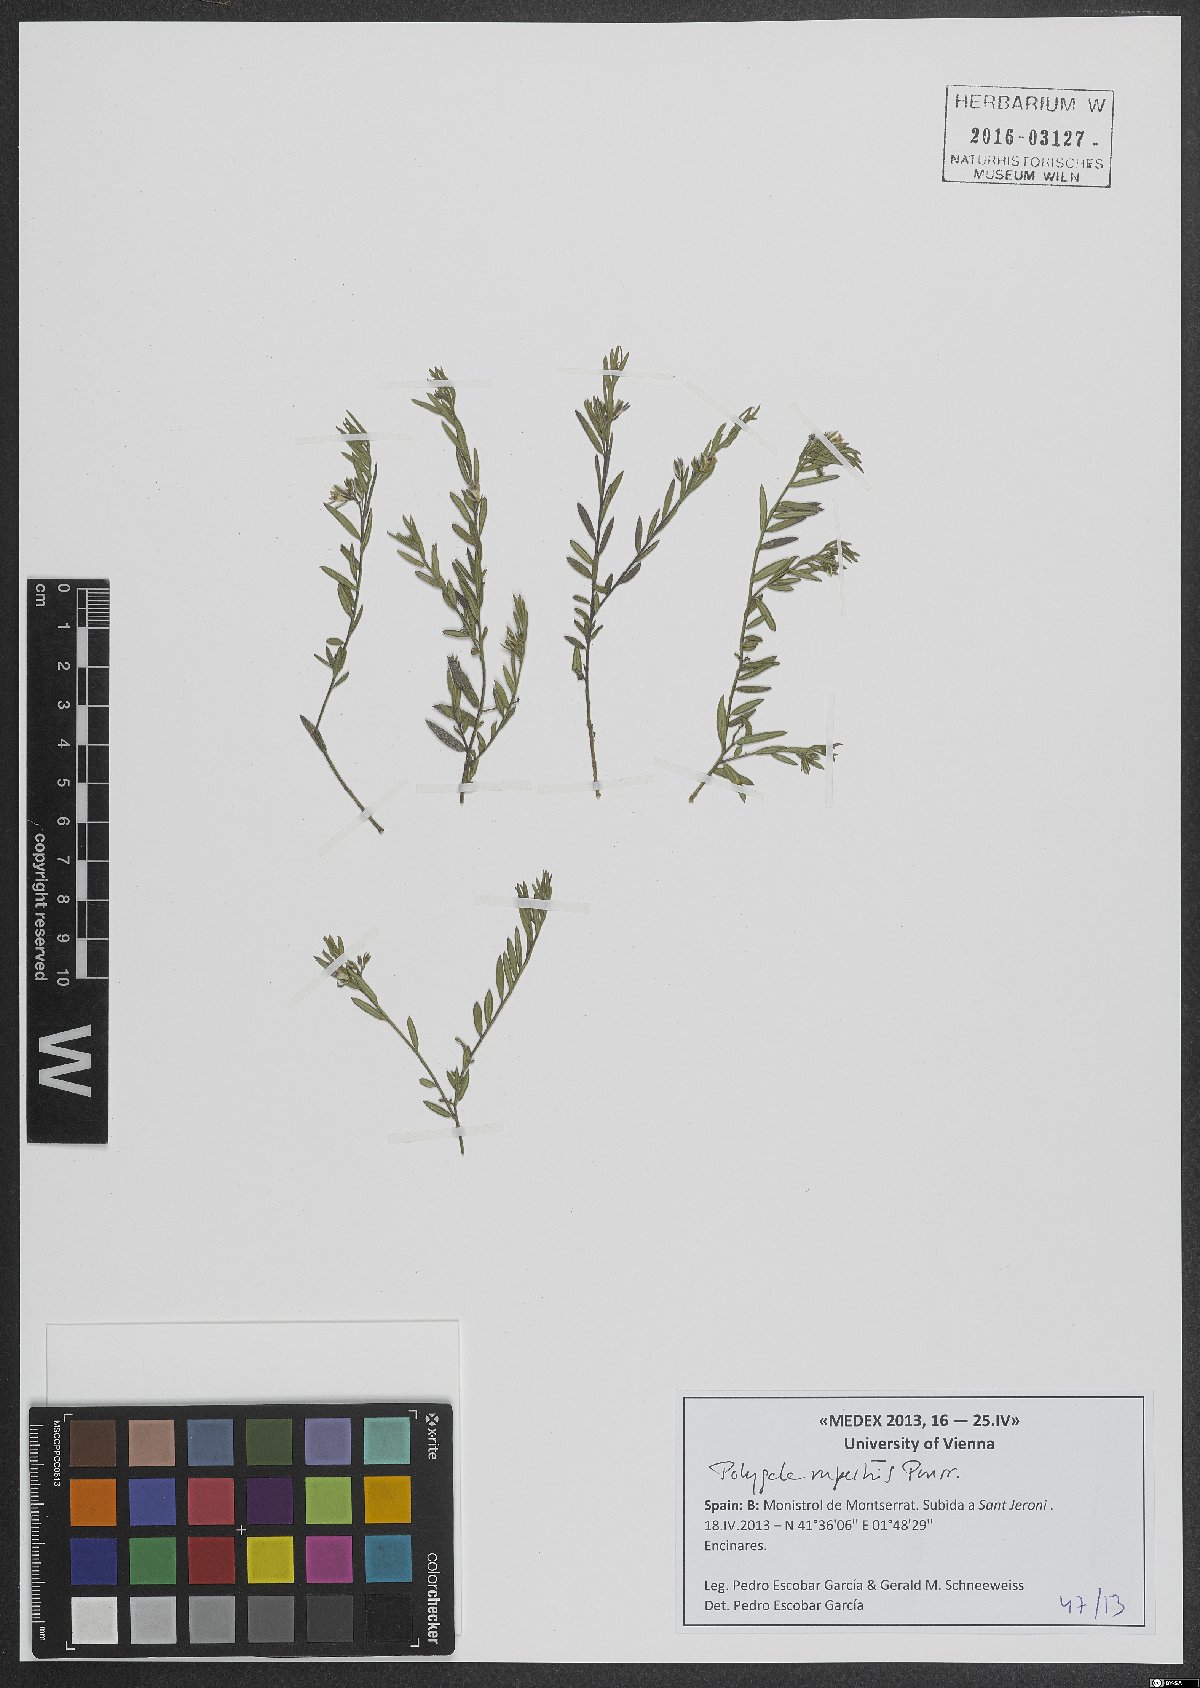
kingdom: Plantae
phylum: Tracheophyta
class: Magnoliopsida
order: Fabales
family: Polygalaceae
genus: Polygala
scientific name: Polygala rupestris
